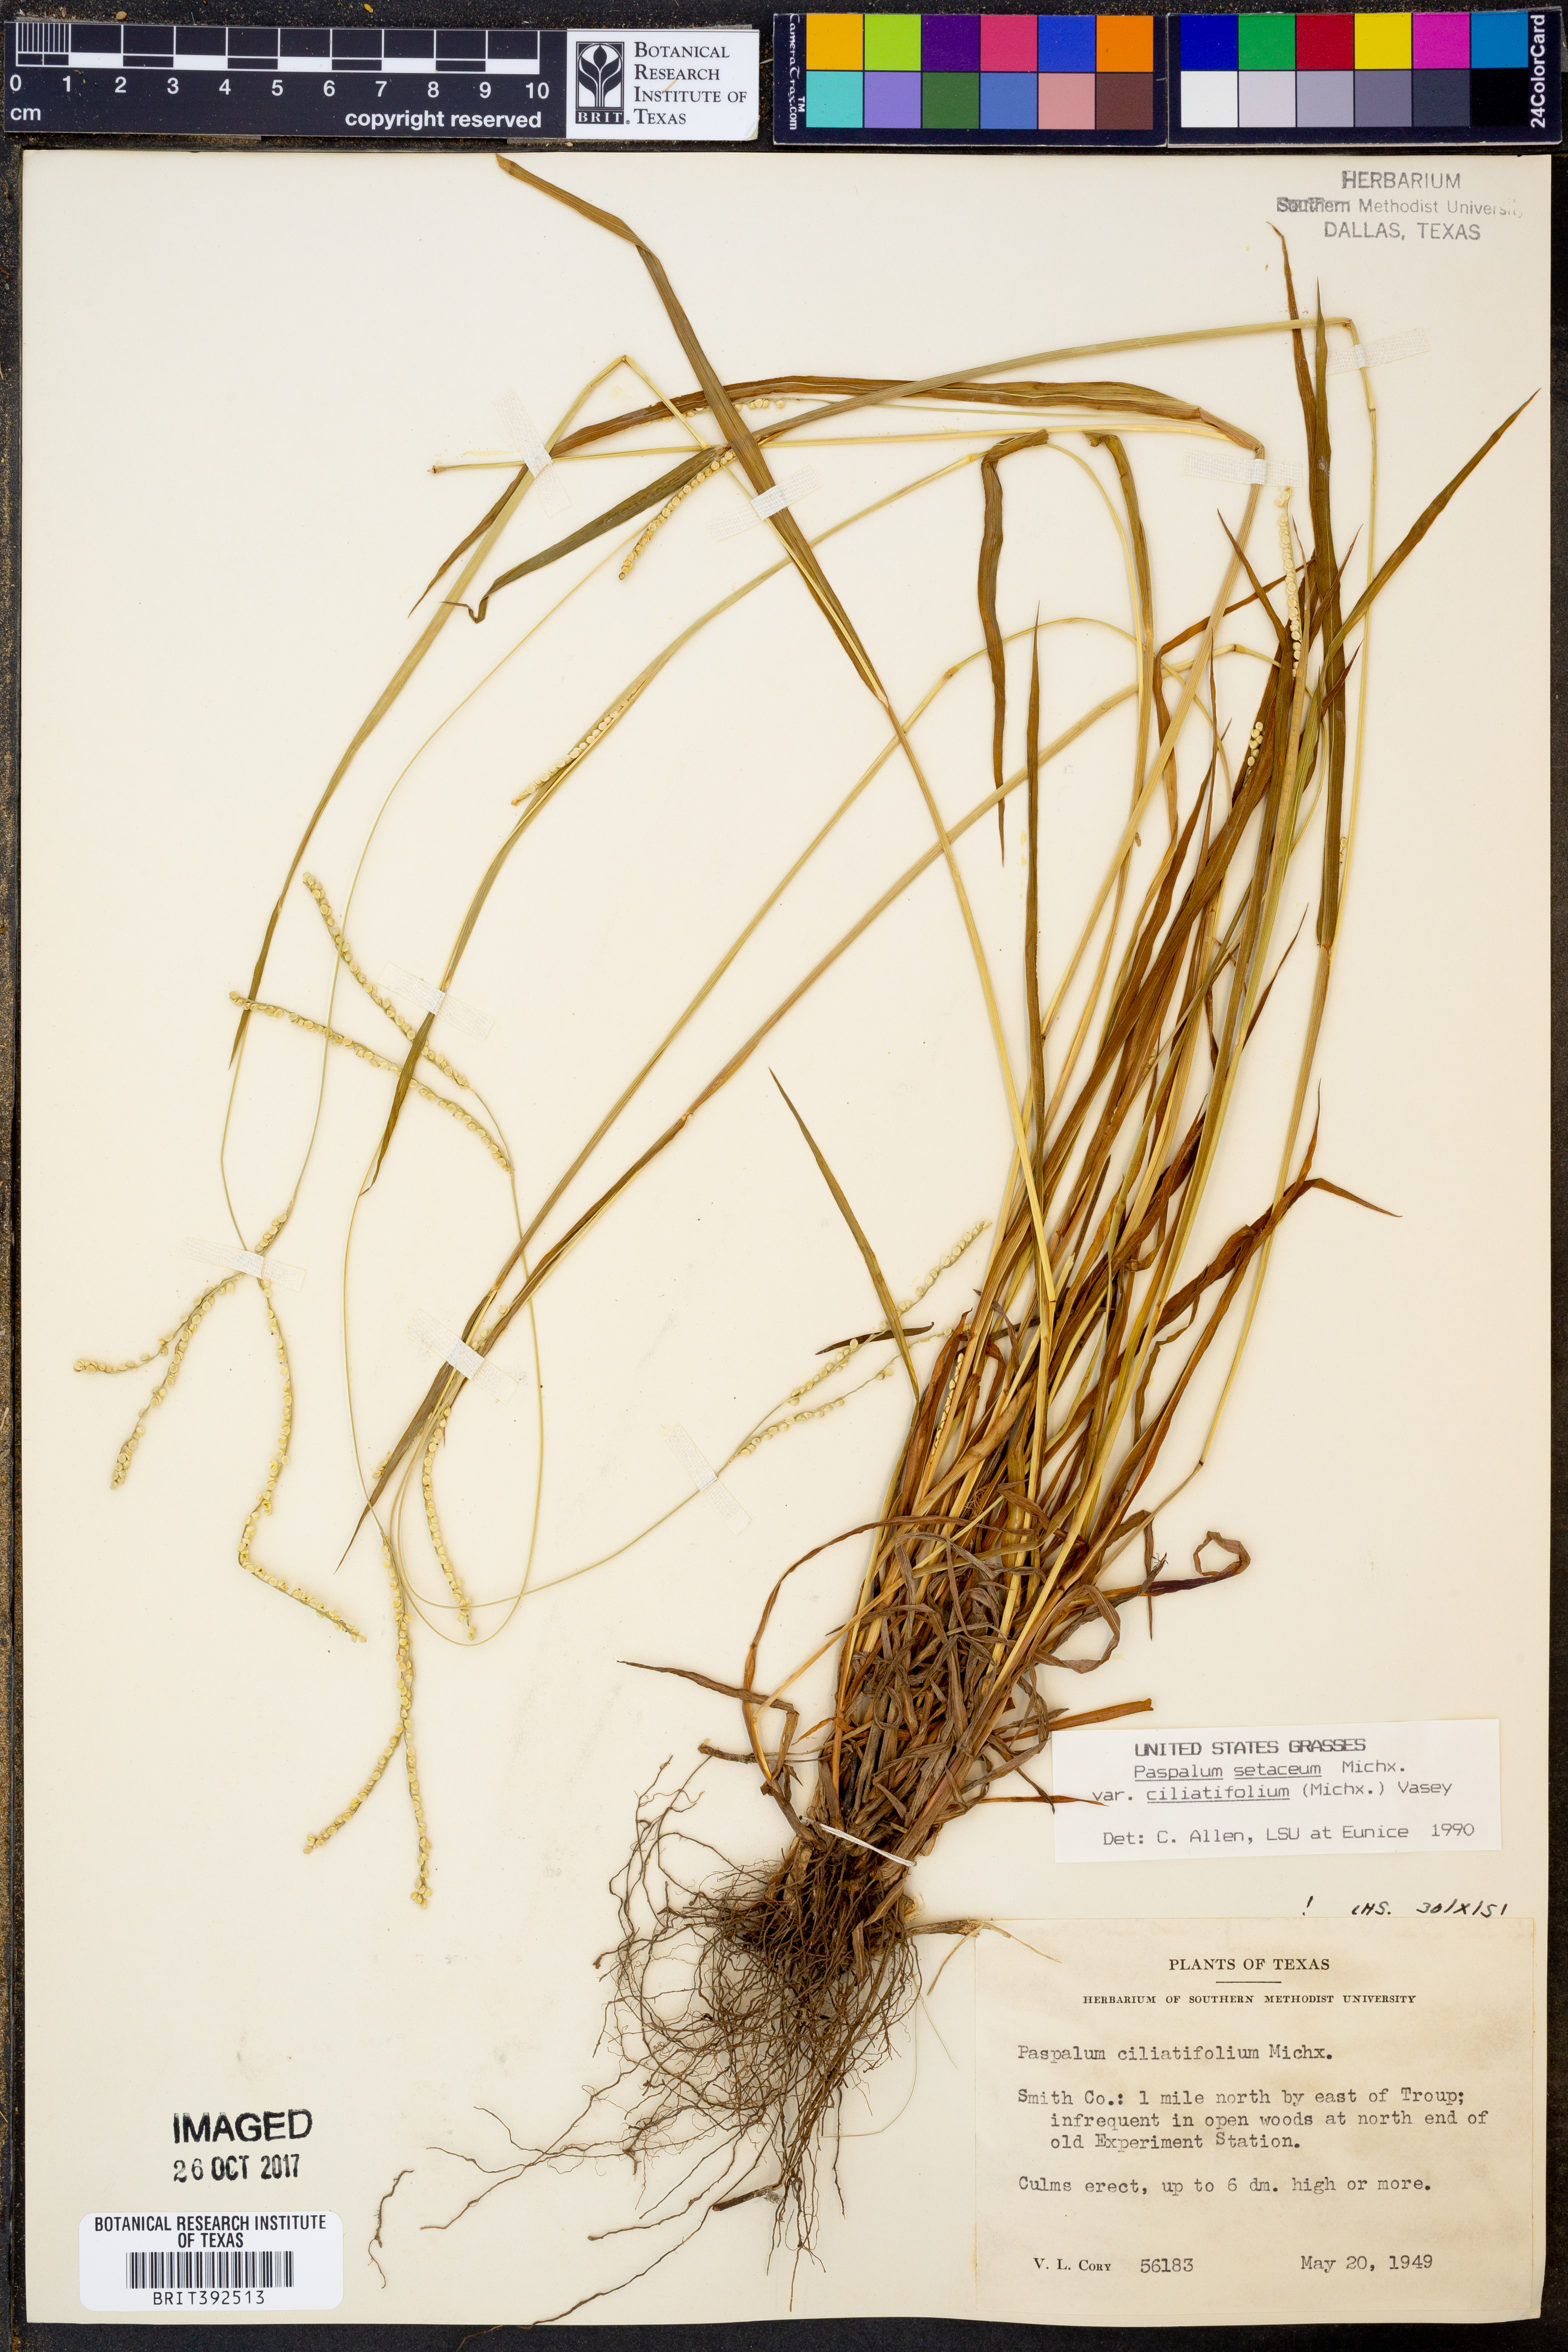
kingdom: Plantae
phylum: Tracheophyta
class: Liliopsida
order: Poales
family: Poaceae
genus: Paspalum
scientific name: Paspalum setaceum
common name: Slender paspalum
